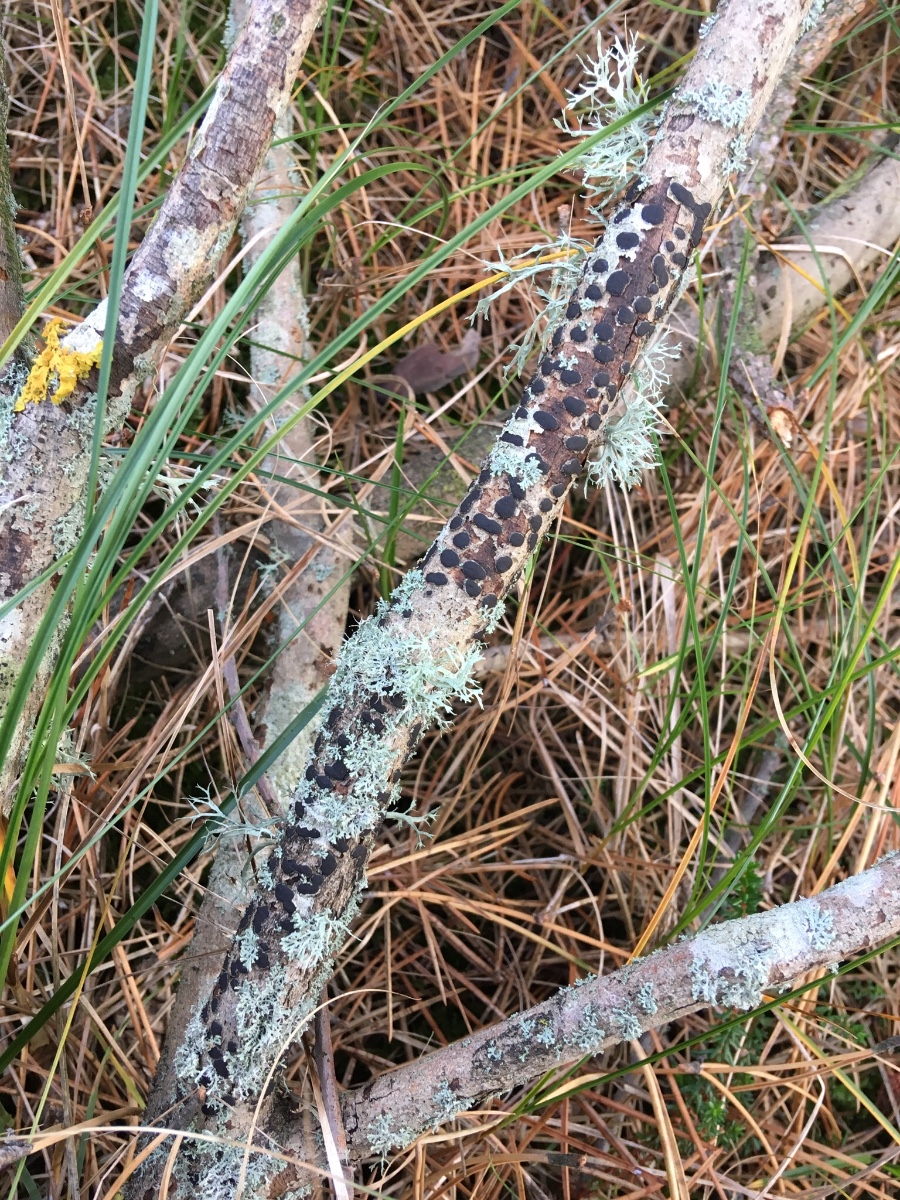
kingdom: Fungi
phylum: Ascomycota
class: Sordariomycetes
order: Xylariales
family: Diatrypaceae
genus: Diatrype
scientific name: Diatrype bullata
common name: pile-kulskorpe
